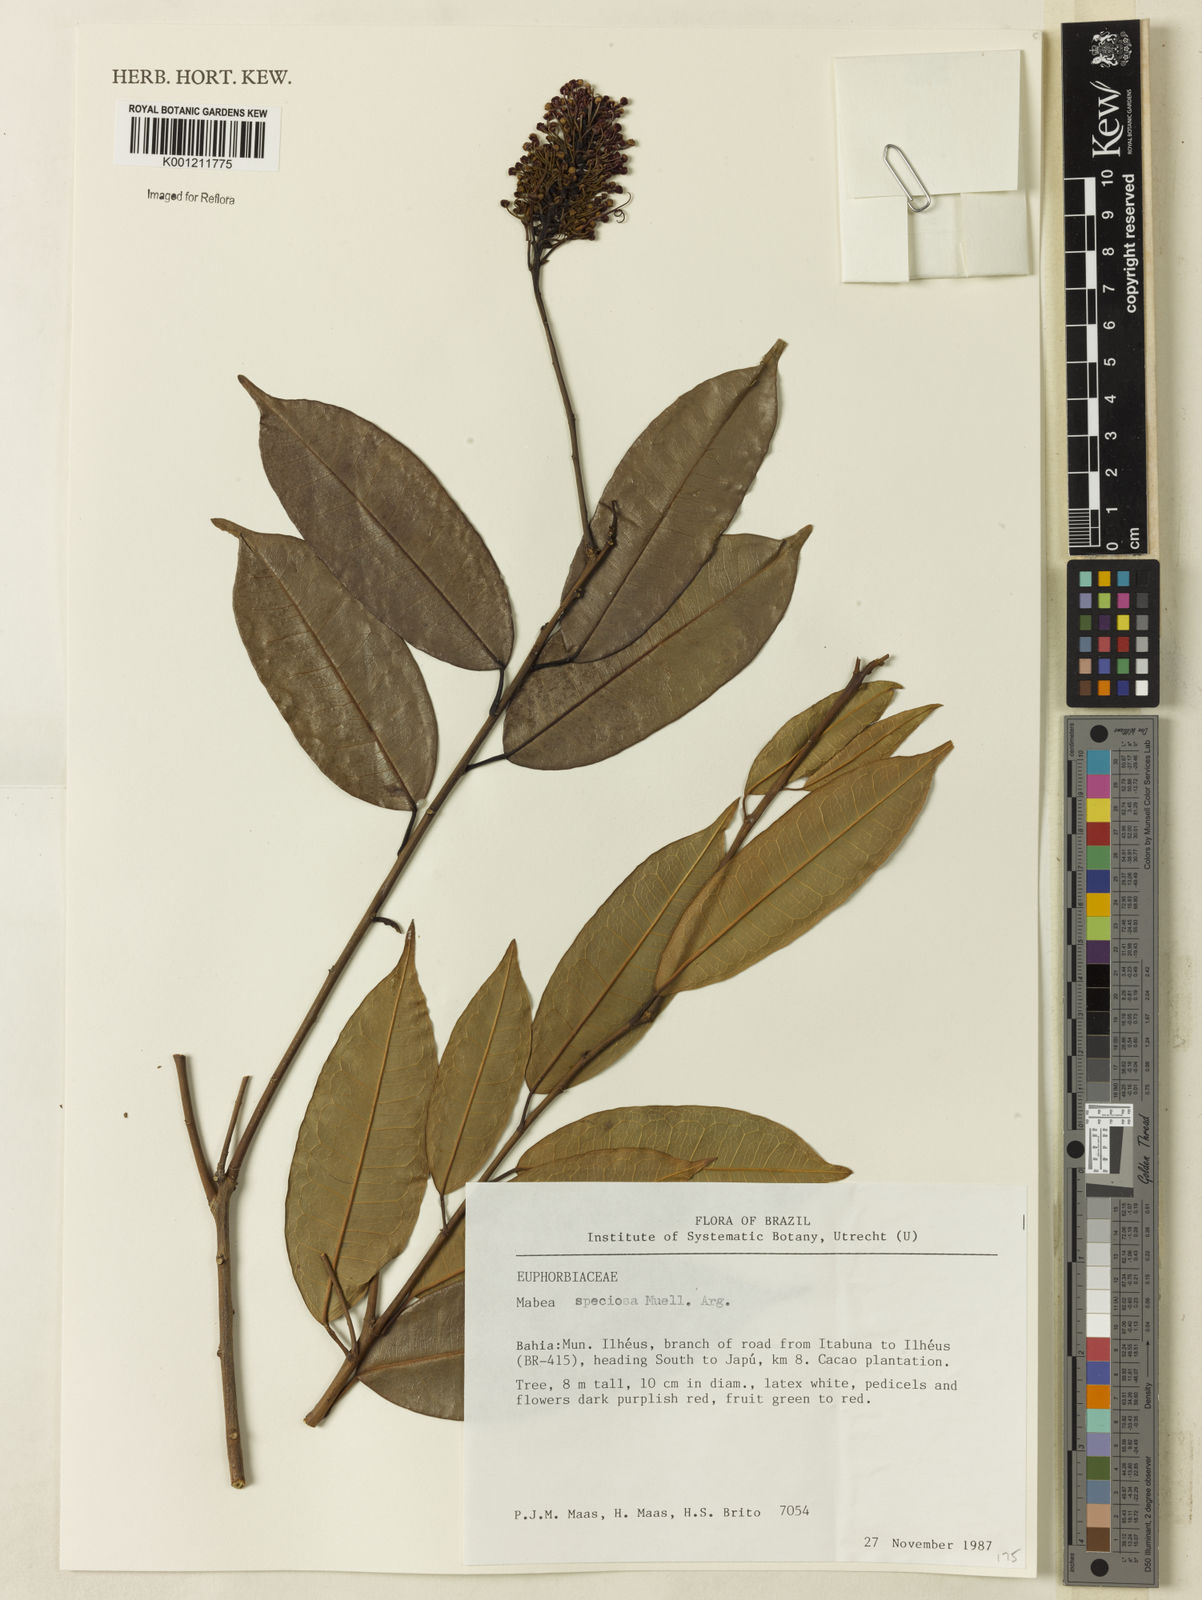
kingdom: Plantae
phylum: Tracheophyta
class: Magnoliopsida
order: Malpighiales
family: Euphorbiaceae
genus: Mabea
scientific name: Mabea
